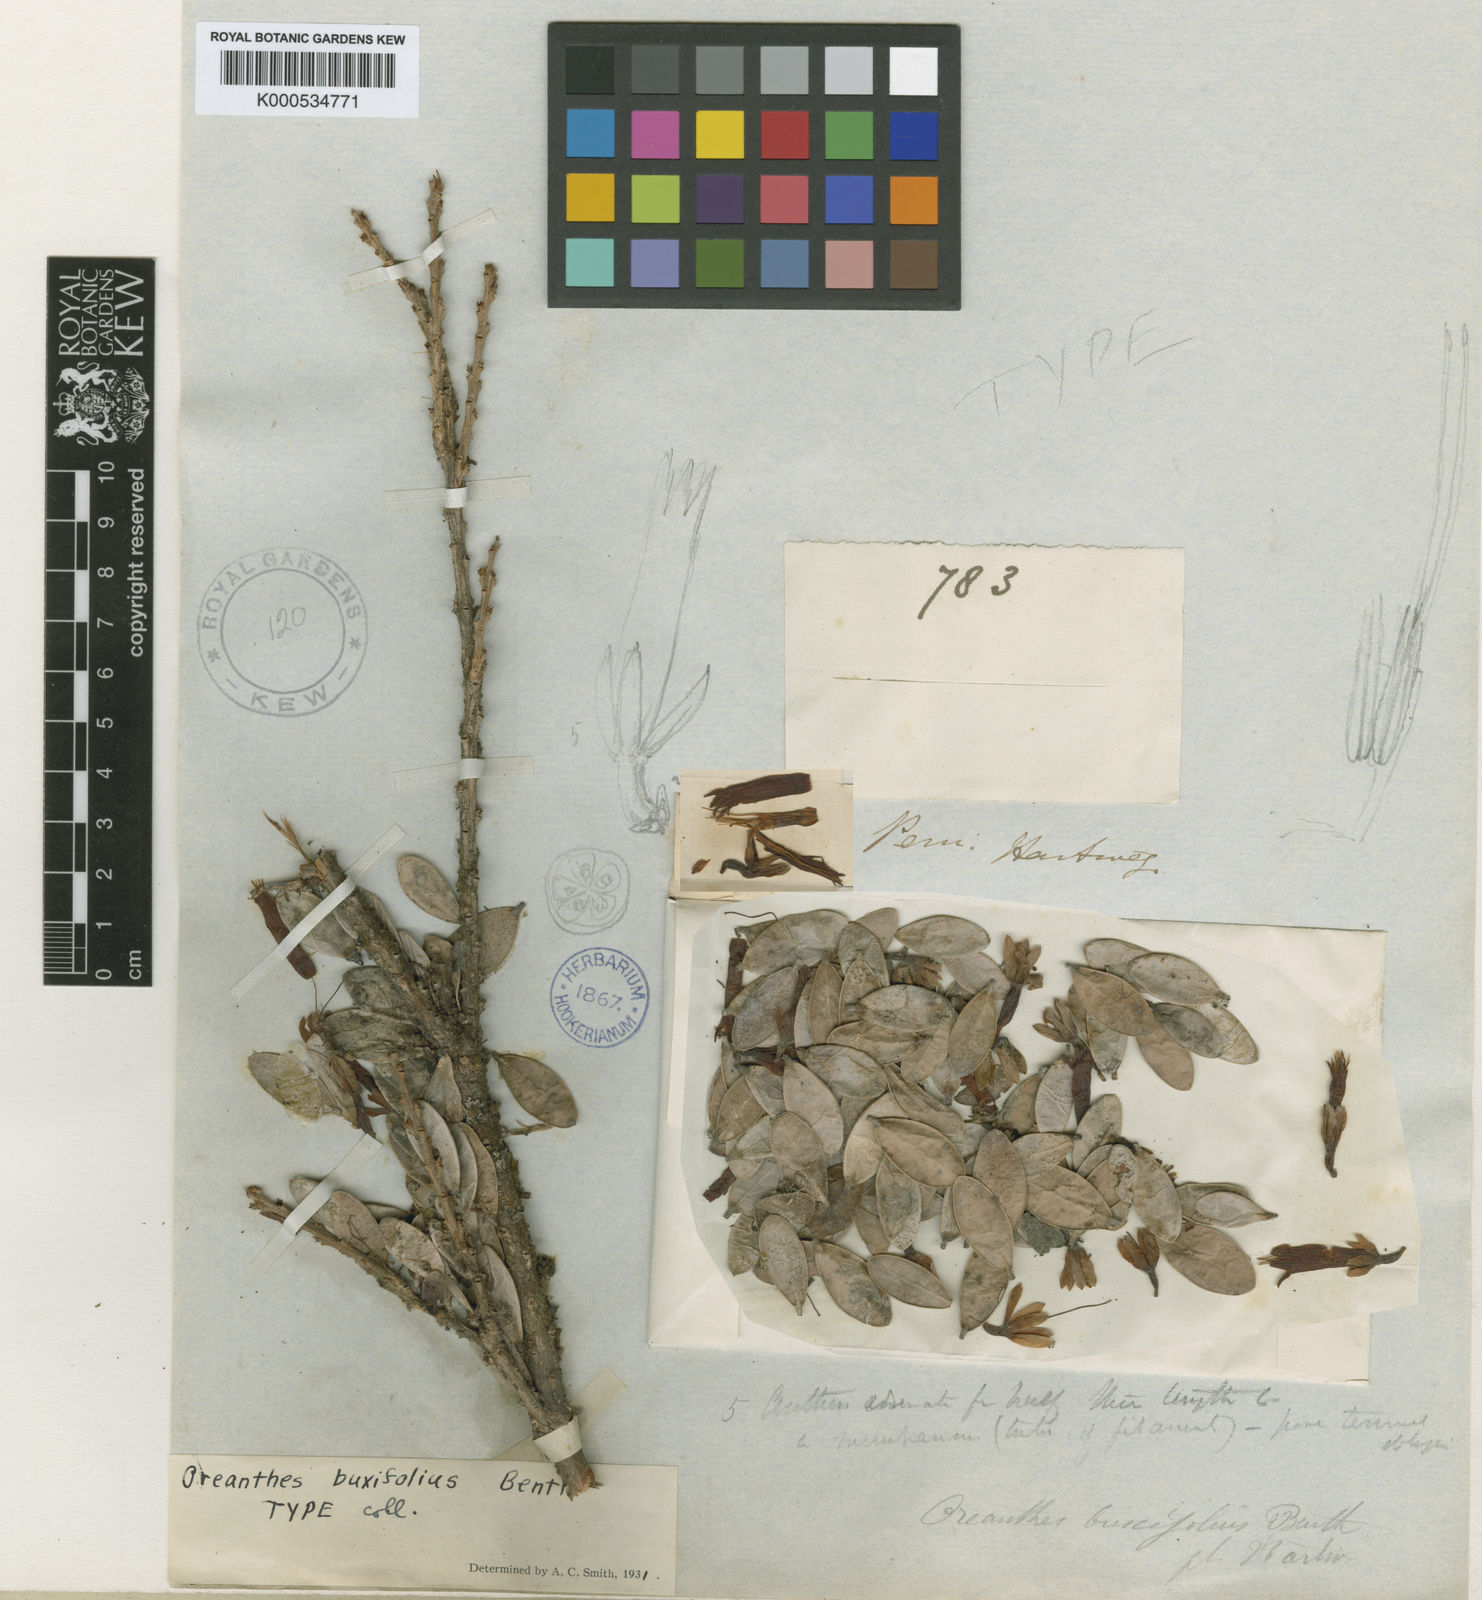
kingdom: Plantae
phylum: Tracheophyta
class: Magnoliopsida
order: Ericales
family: Ericaceae
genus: Oreanthes
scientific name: Oreanthes buxifolius
